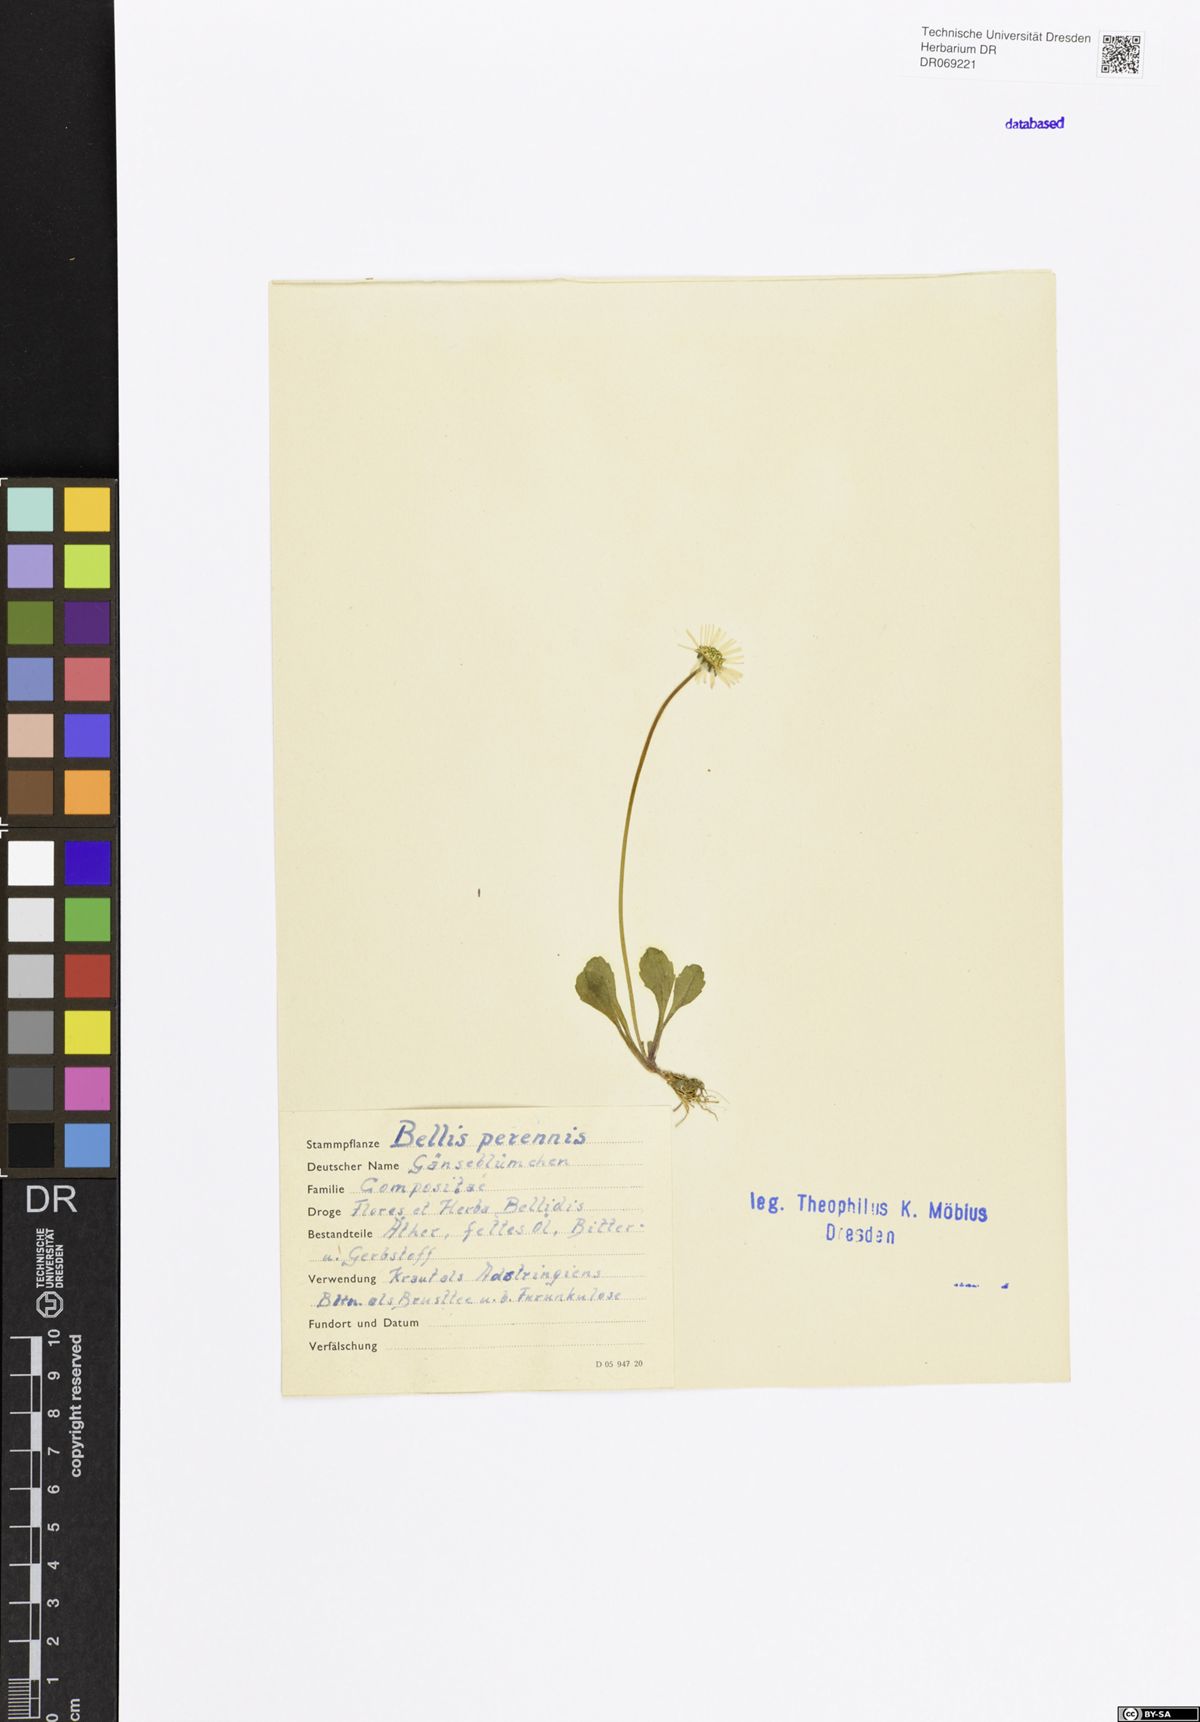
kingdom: Plantae
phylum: Tracheophyta
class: Magnoliopsida
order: Asterales
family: Asteraceae
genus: Bellis
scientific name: Bellis perennis
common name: Lawndaisy
